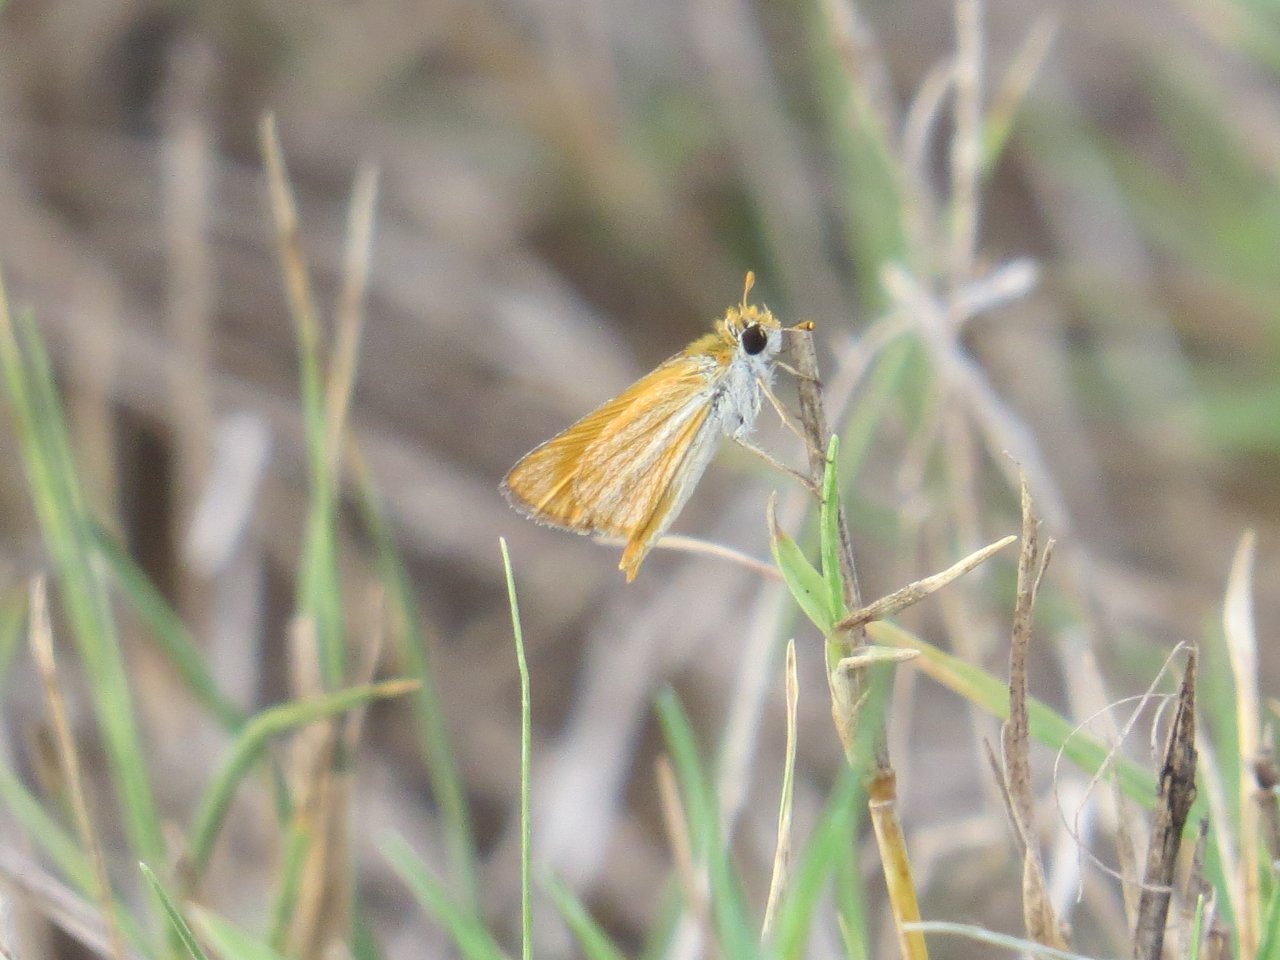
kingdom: Animalia
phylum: Arthropoda
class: Insecta
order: Lepidoptera
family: Hesperiidae
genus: Copaeodes
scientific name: Copaeodes minima
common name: Southern Skipperling
